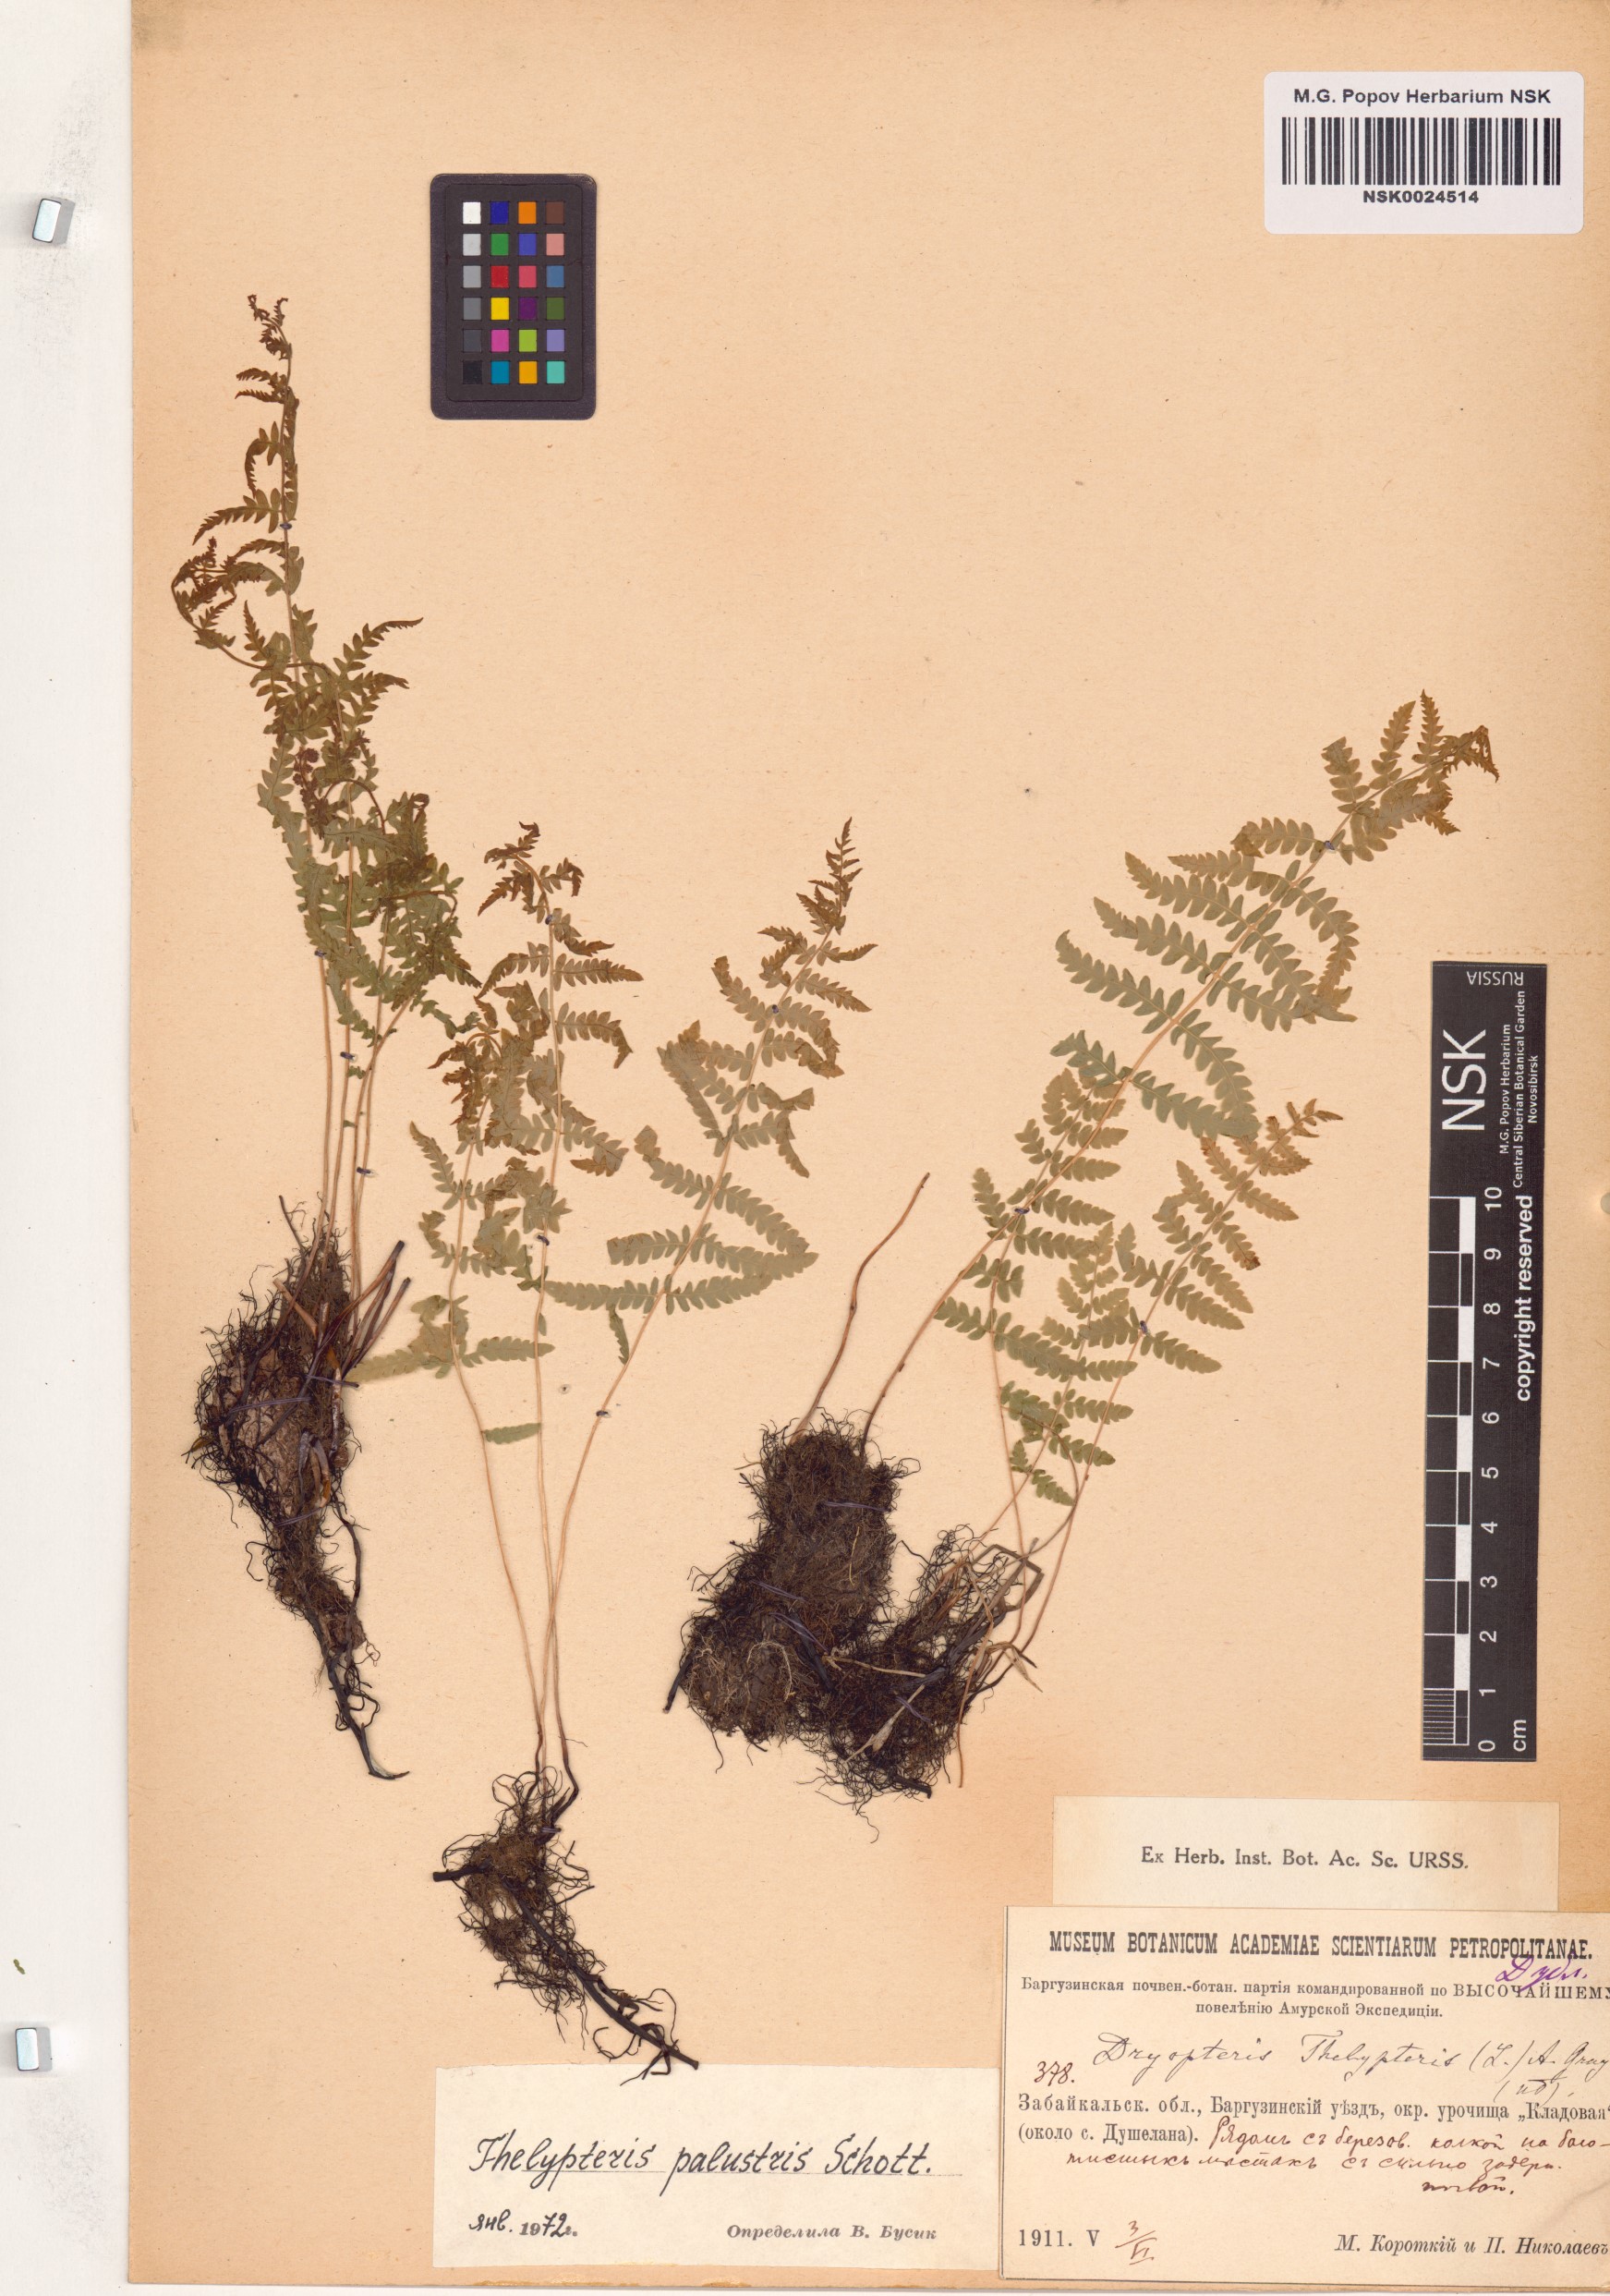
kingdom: Plantae
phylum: Tracheophyta
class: Polypodiopsida
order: Polypodiales
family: Thelypteridaceae
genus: Thelypteris
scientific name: Thelypteris palustris
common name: Marsh fern
